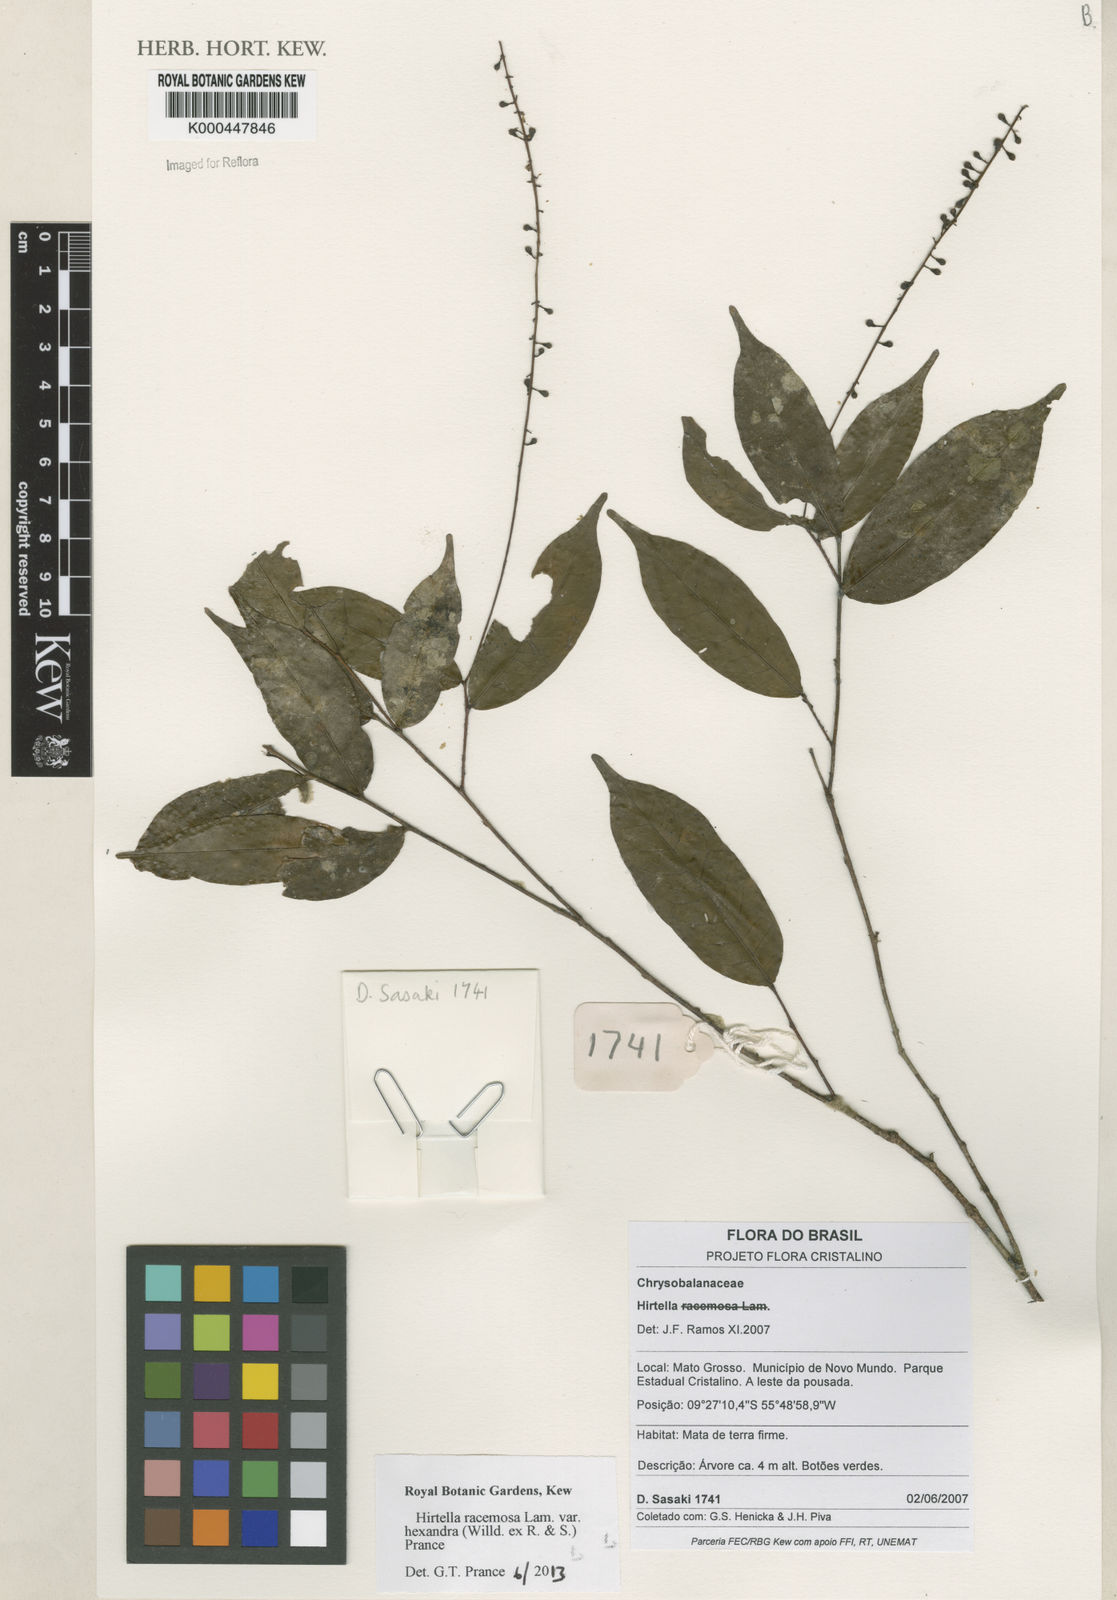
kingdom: Plantae
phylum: Tracheophyta
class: Magnoliopsida
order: Malpighiales
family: Chrysobalanaceae
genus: Hirtella
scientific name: Hirtella
